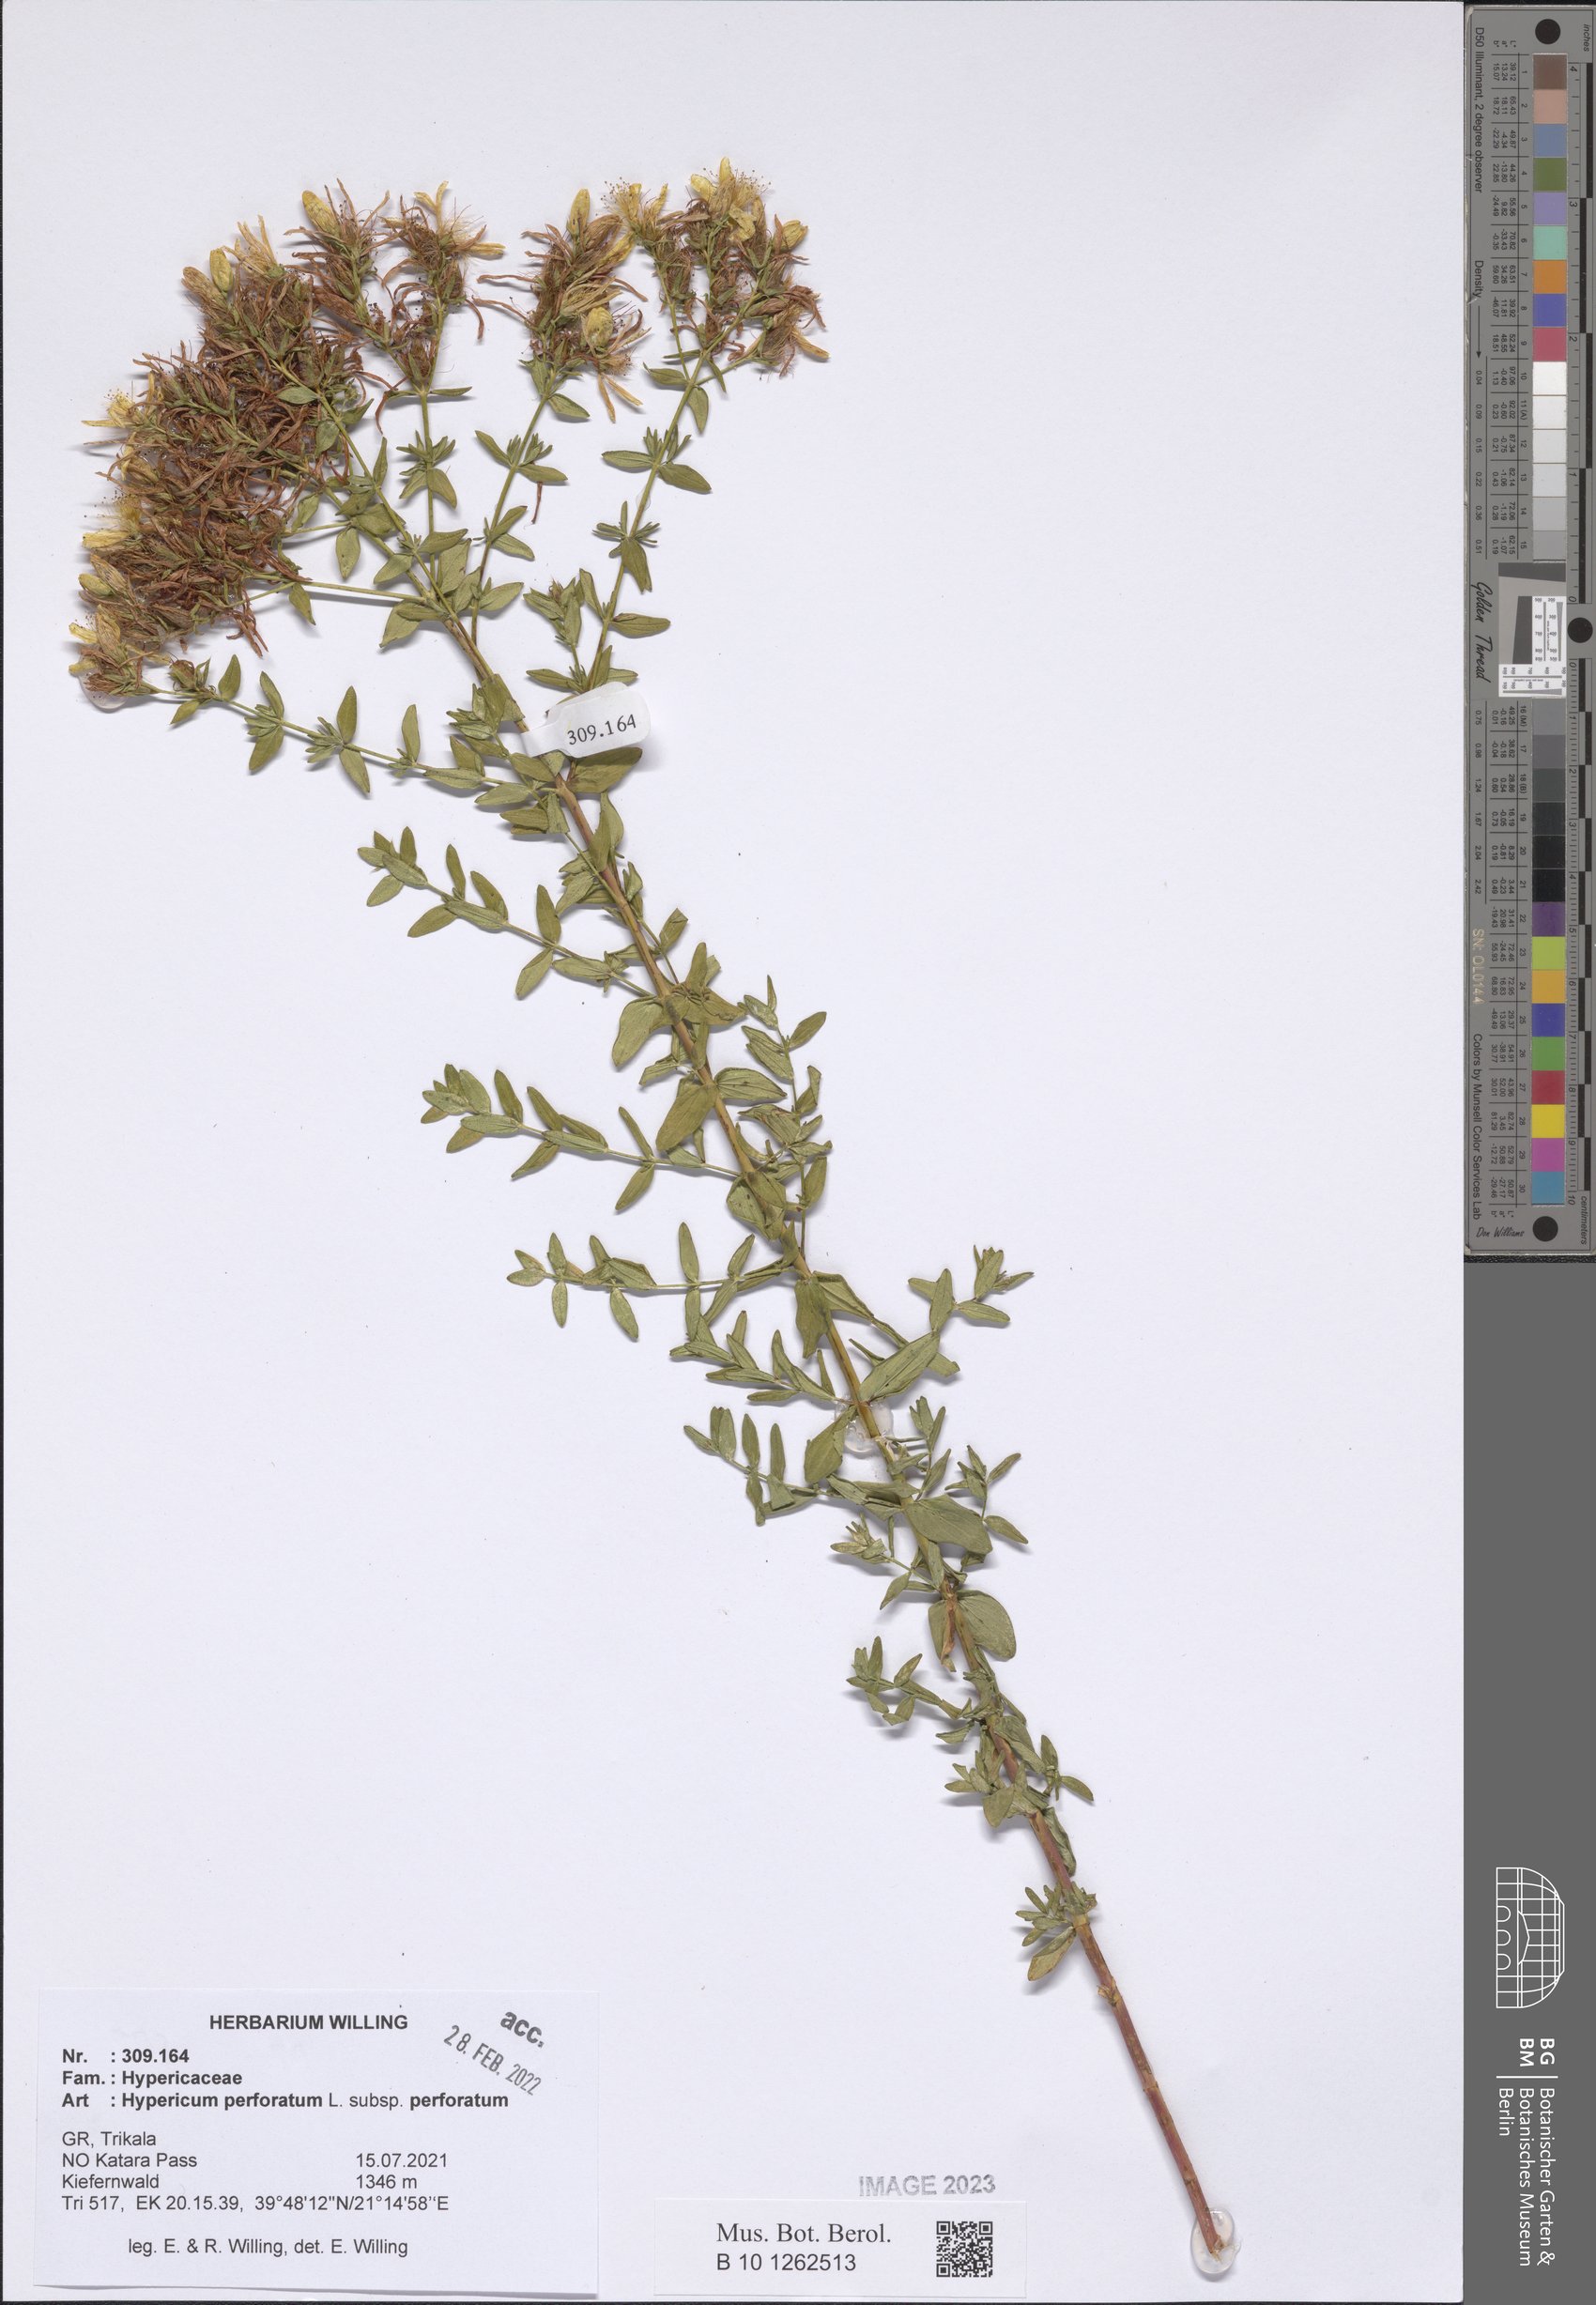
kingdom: Plantae
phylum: Tracheophyta
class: Magnoliopsida
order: Malpighiales
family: Hypericaceae
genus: Hypericum
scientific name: Hypericum perforatum
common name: Common st. johnswort
